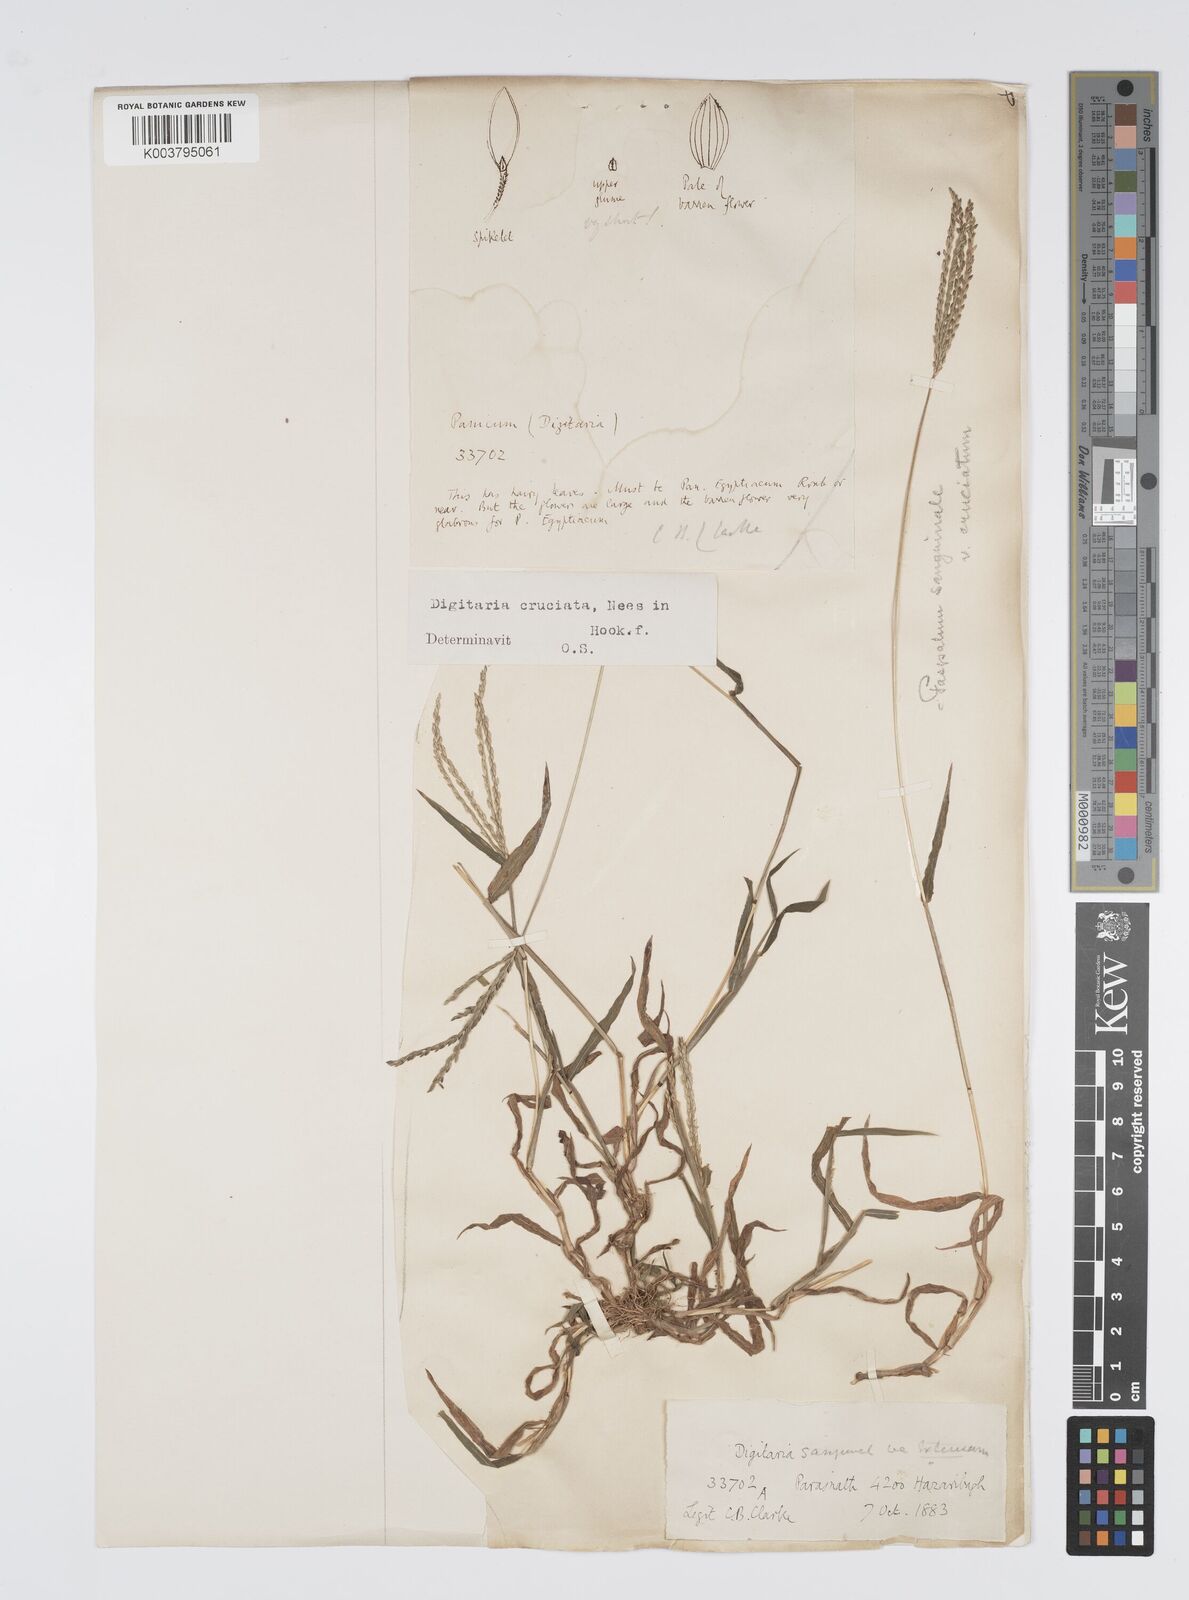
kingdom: Plantae
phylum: Tracheophyta
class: Liliopsida
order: Poales
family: Poaceae
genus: Digitaria
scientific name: Digitaria setigera
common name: East indian crabgrass
